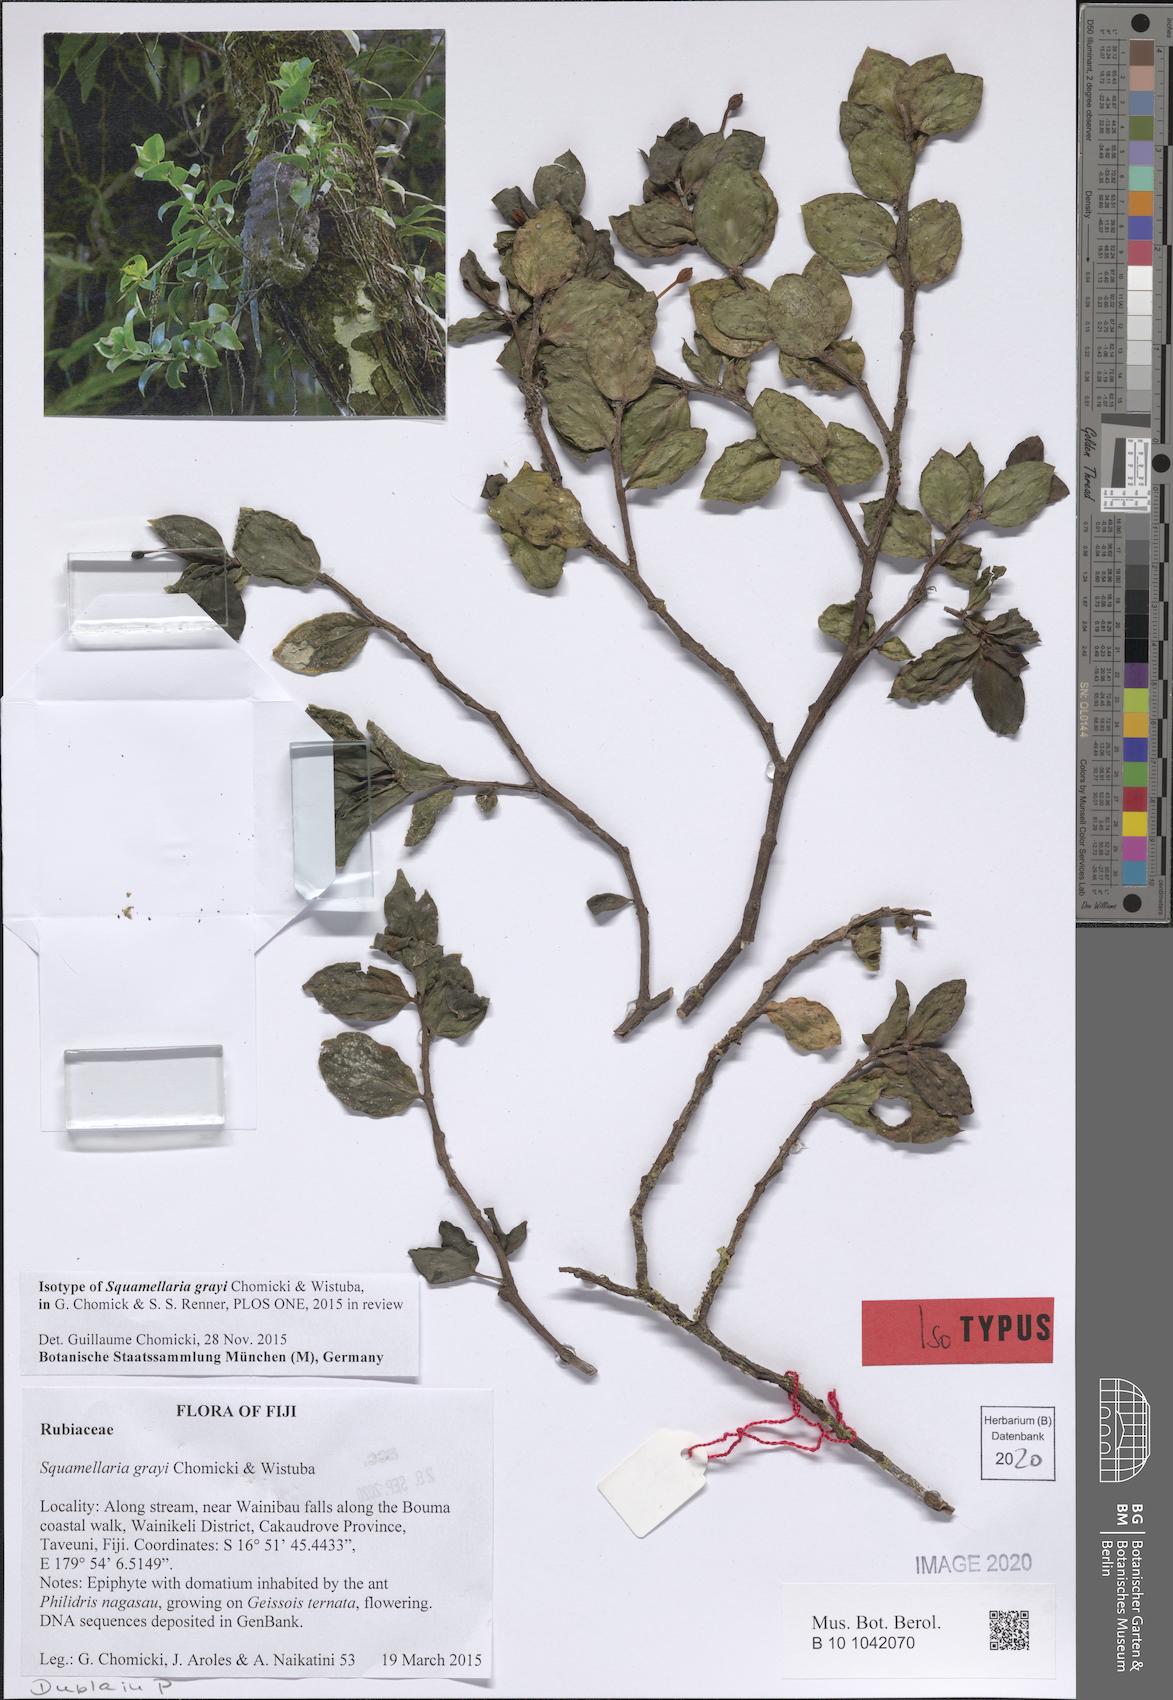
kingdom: Plantae
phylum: Tracheophyta
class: Magnoliopsida
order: Gentianales
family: Rubiaceae
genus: Squamellaria
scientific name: Squamellaria grayi
